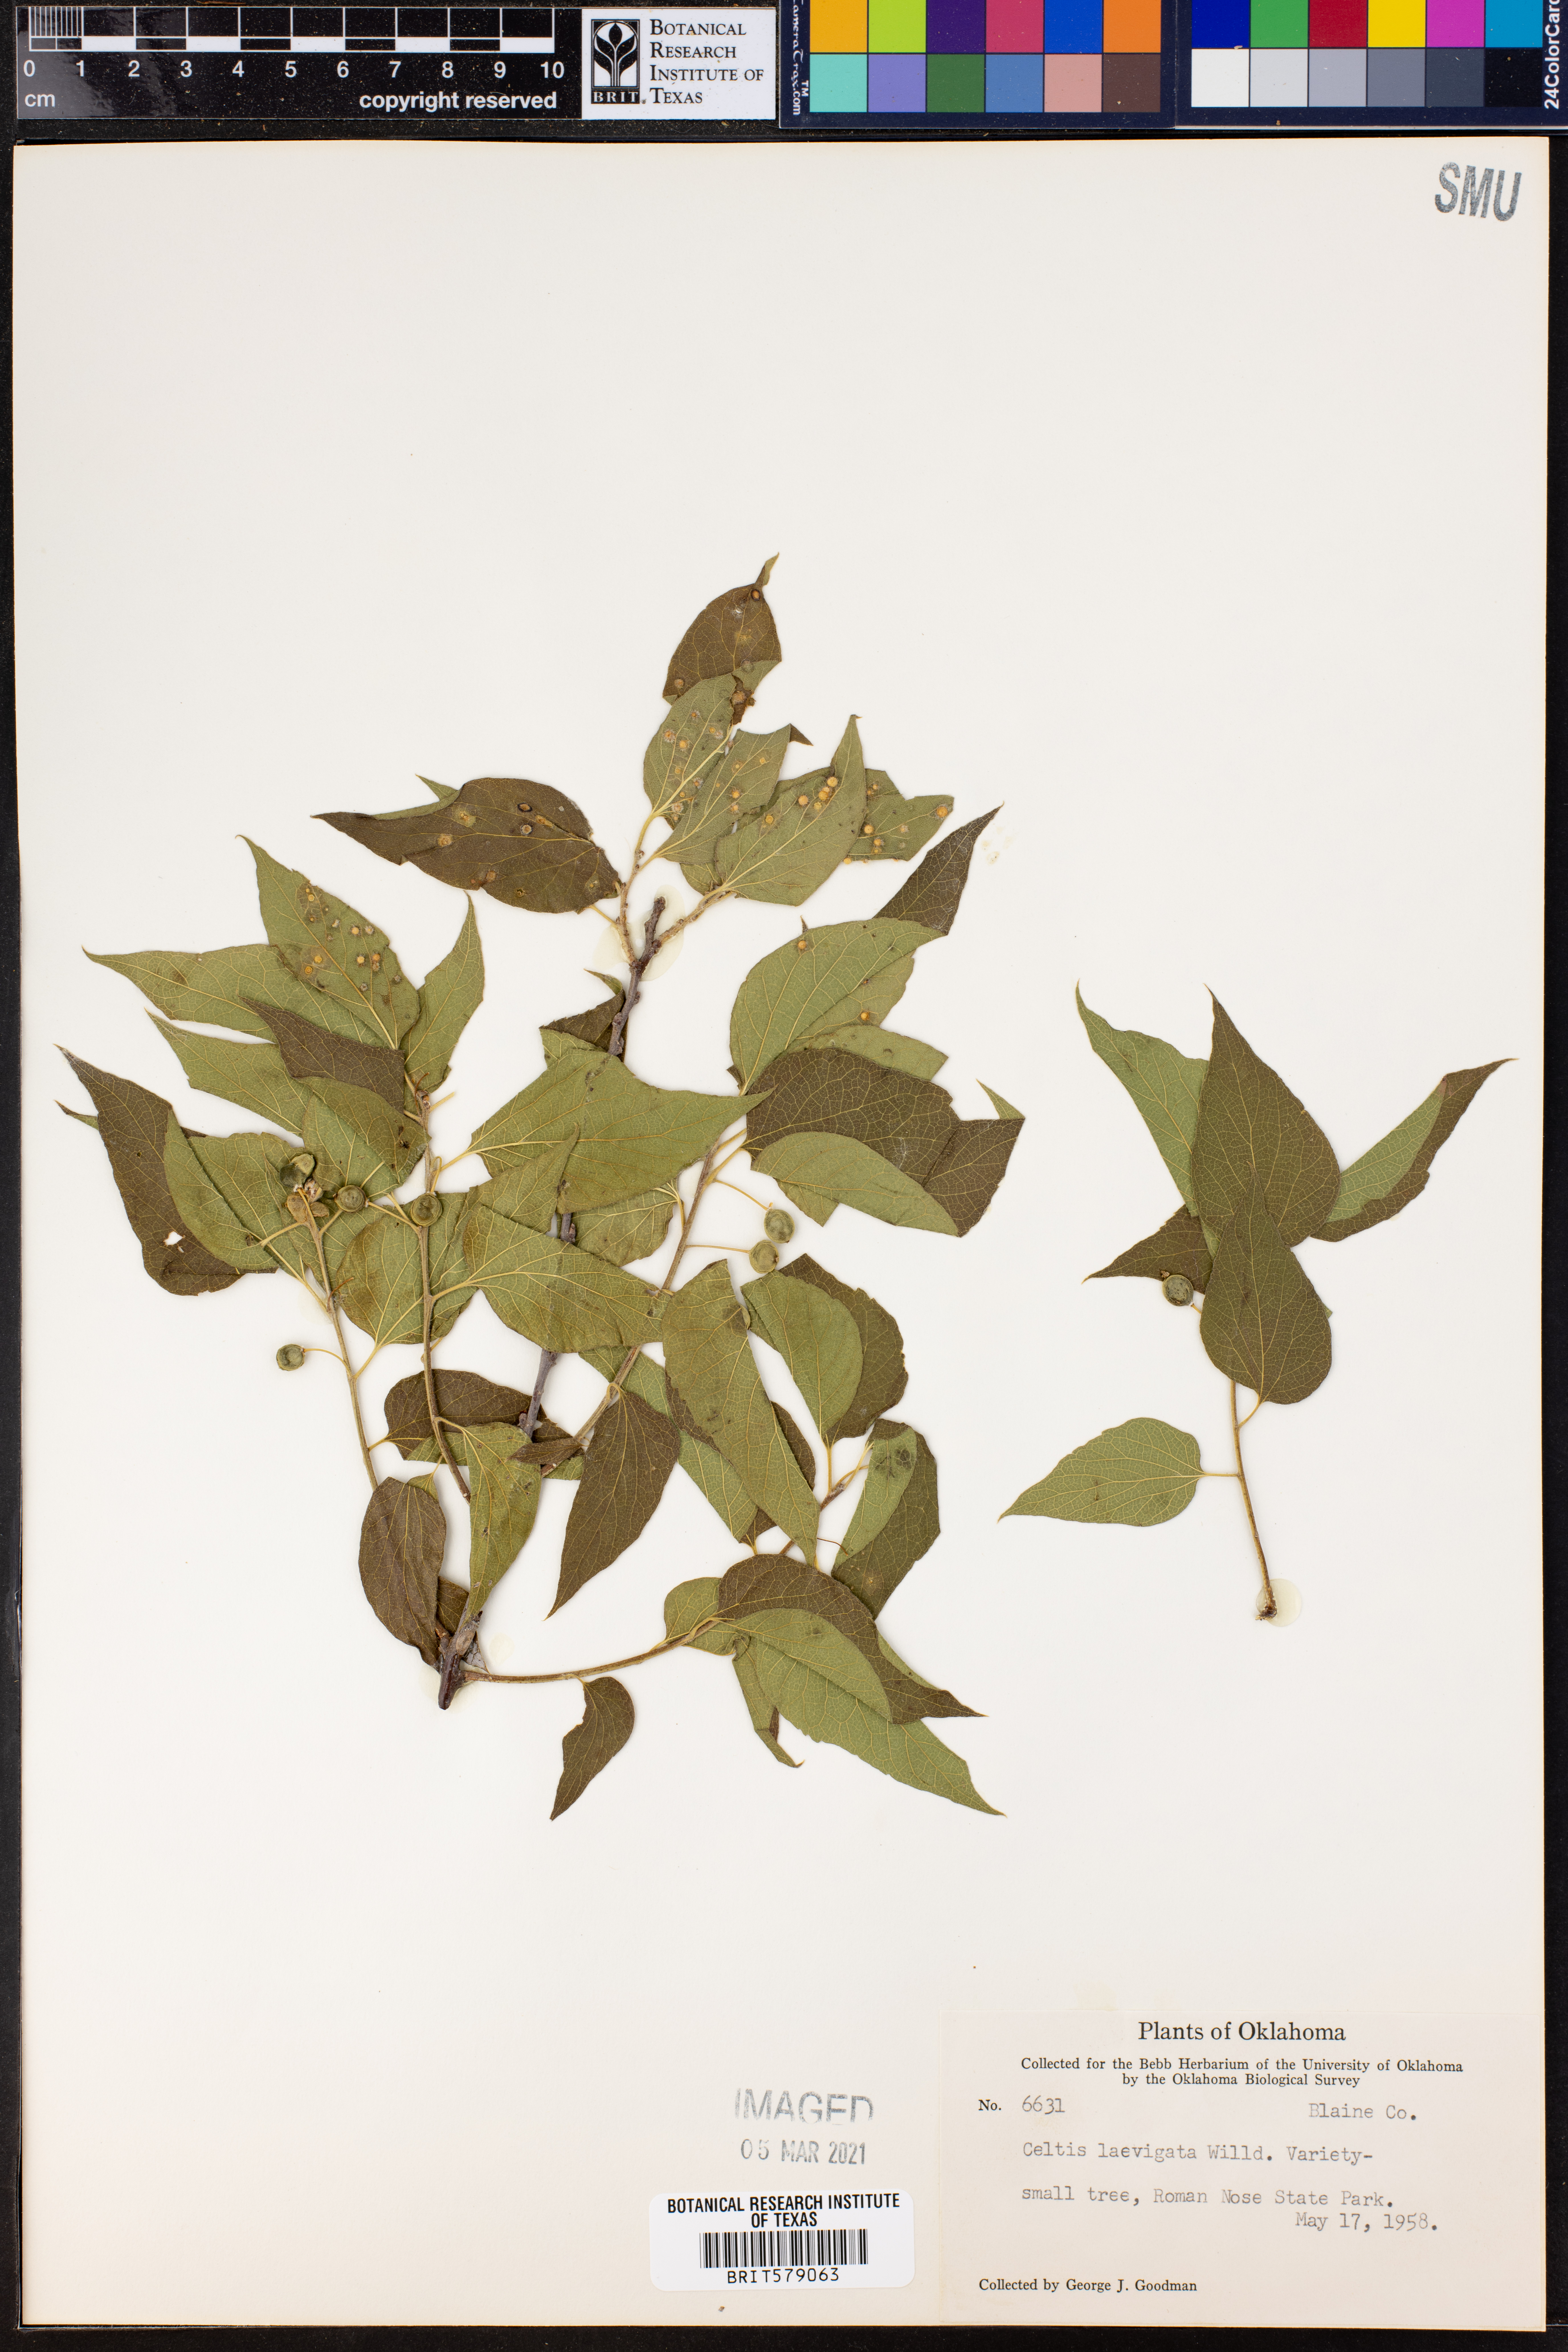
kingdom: Plantae
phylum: Tracheophyta
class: Magnoliopsida
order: Rosales
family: Cannabaceae
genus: Celtis
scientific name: Celtis laevigata
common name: Sugarberry
